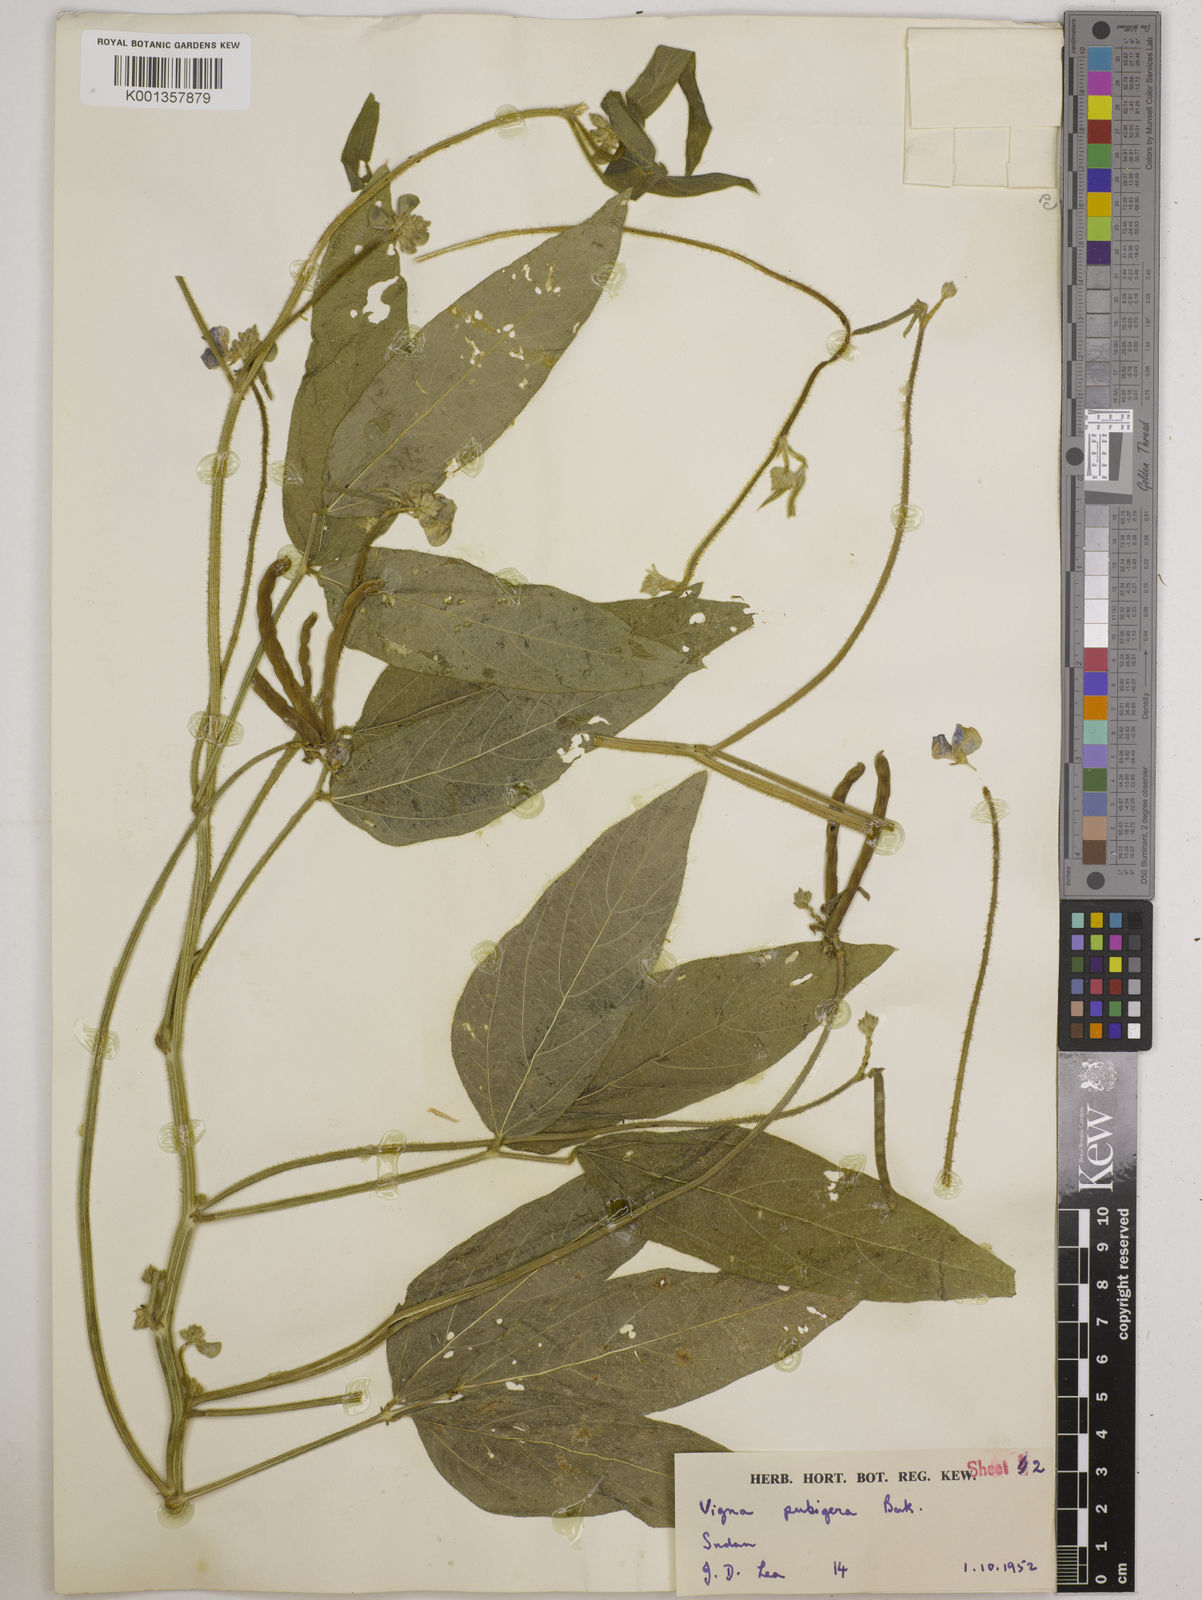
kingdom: Plantae
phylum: Tracheophyta
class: Magnoliopsida
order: Fabales
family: Fabaceae
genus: Vigna
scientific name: Vigna ambacensis
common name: Tsarkiyan zomo
